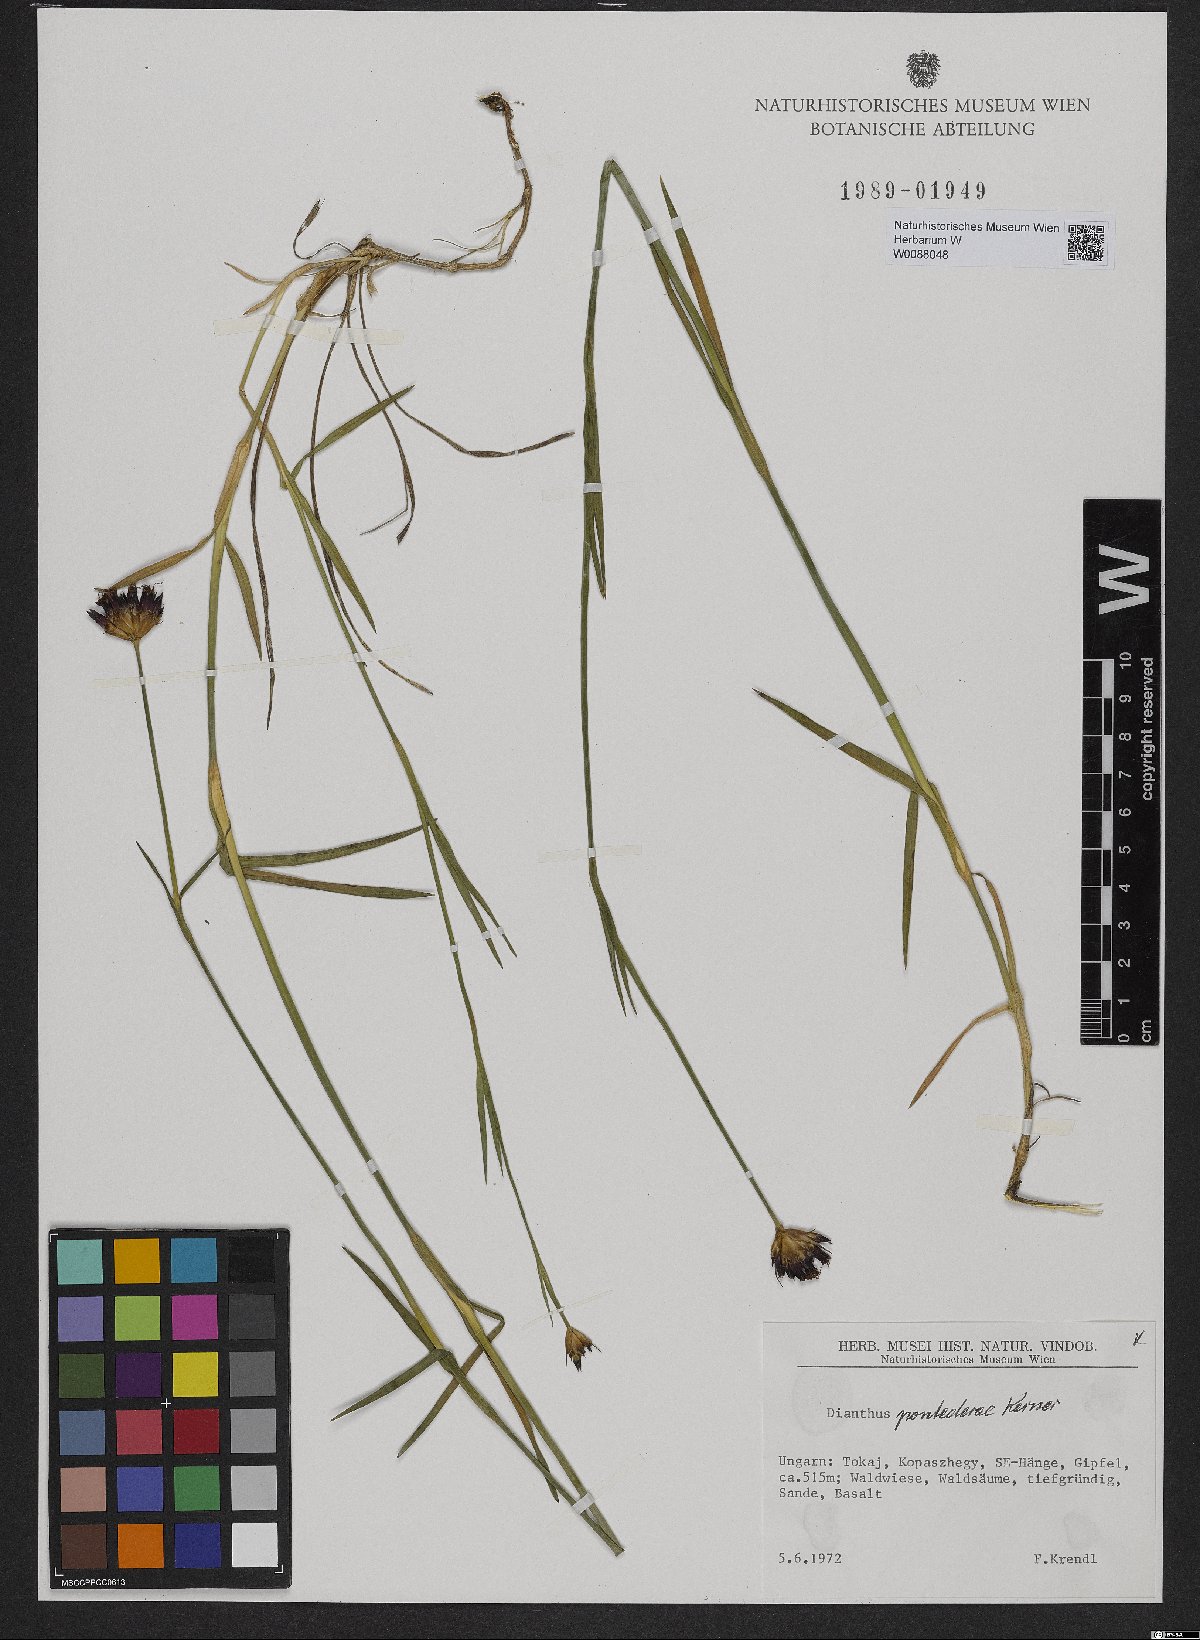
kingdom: Plantae
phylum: Tracheophyta
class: Magnoliopsida
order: Caryophyllales
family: Caryophyllaceae
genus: Dianthus
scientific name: Dianthus pontederae
